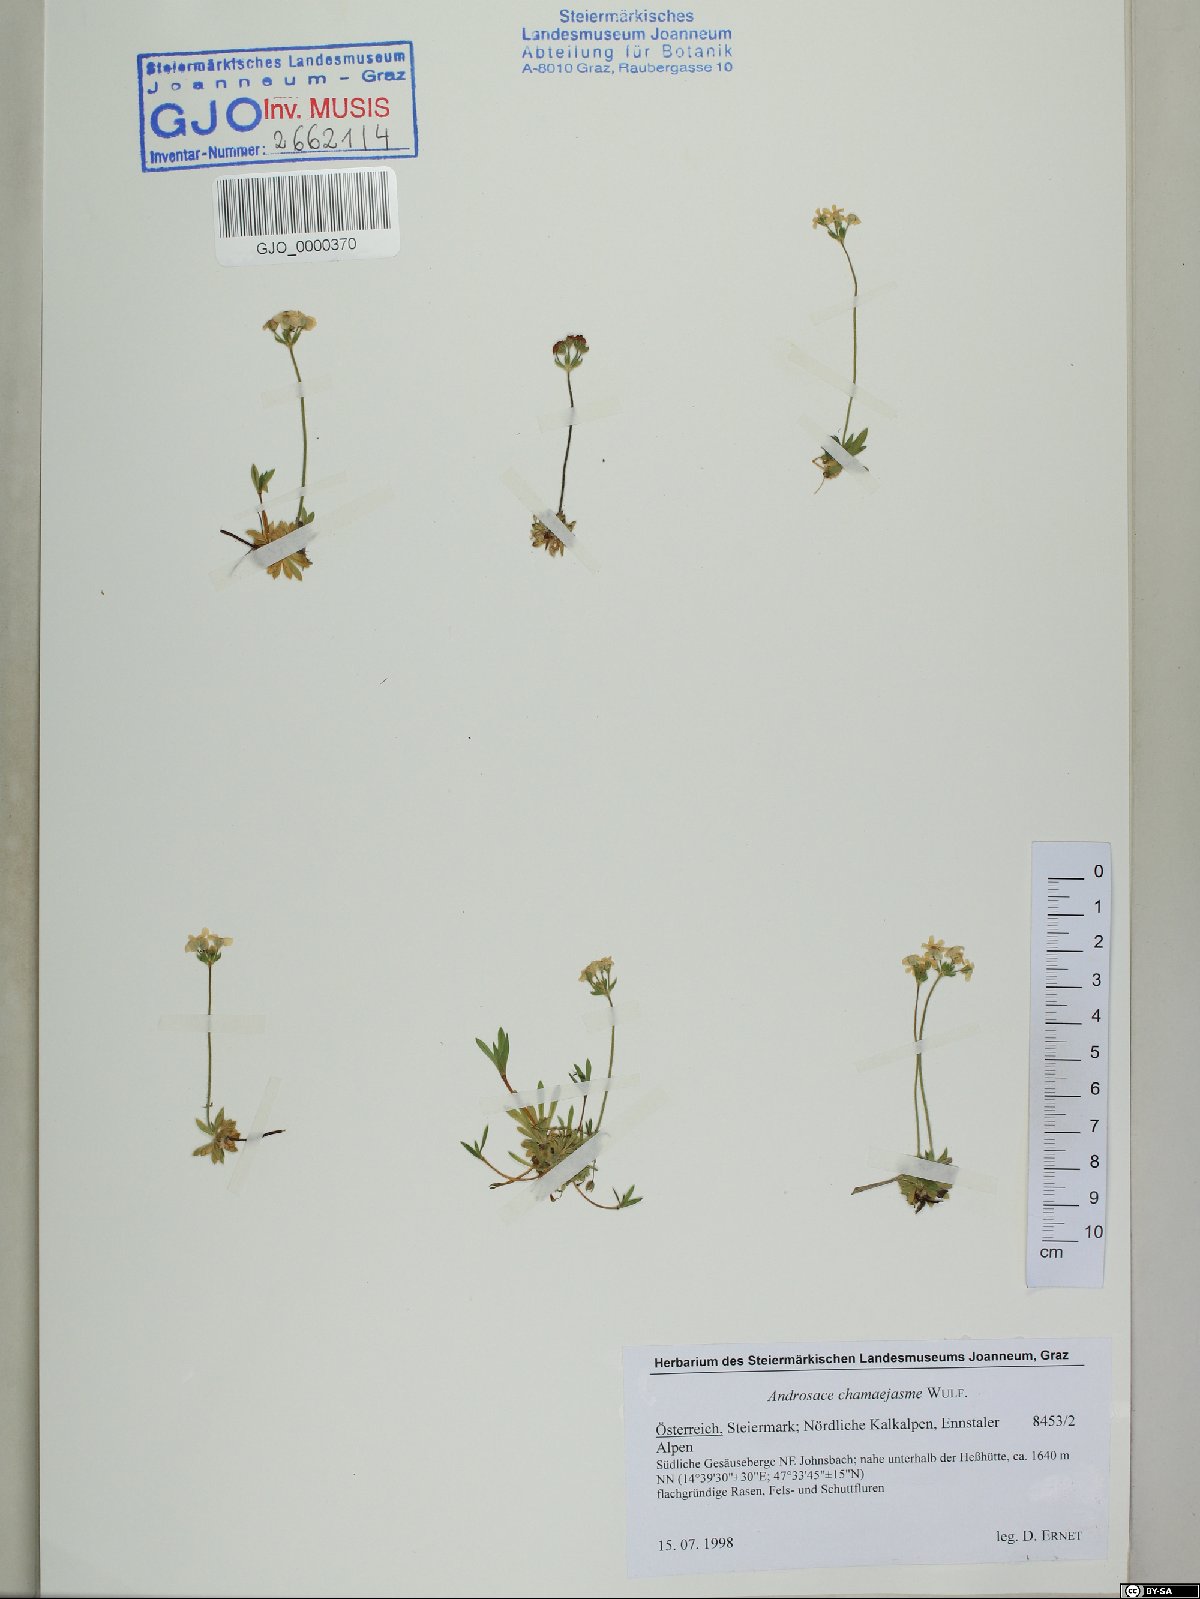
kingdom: Plantae
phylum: Tracheophyta
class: Magnoliopsida
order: Ericales
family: Primulaceae
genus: Androsace
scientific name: Androsace chamaejasme
